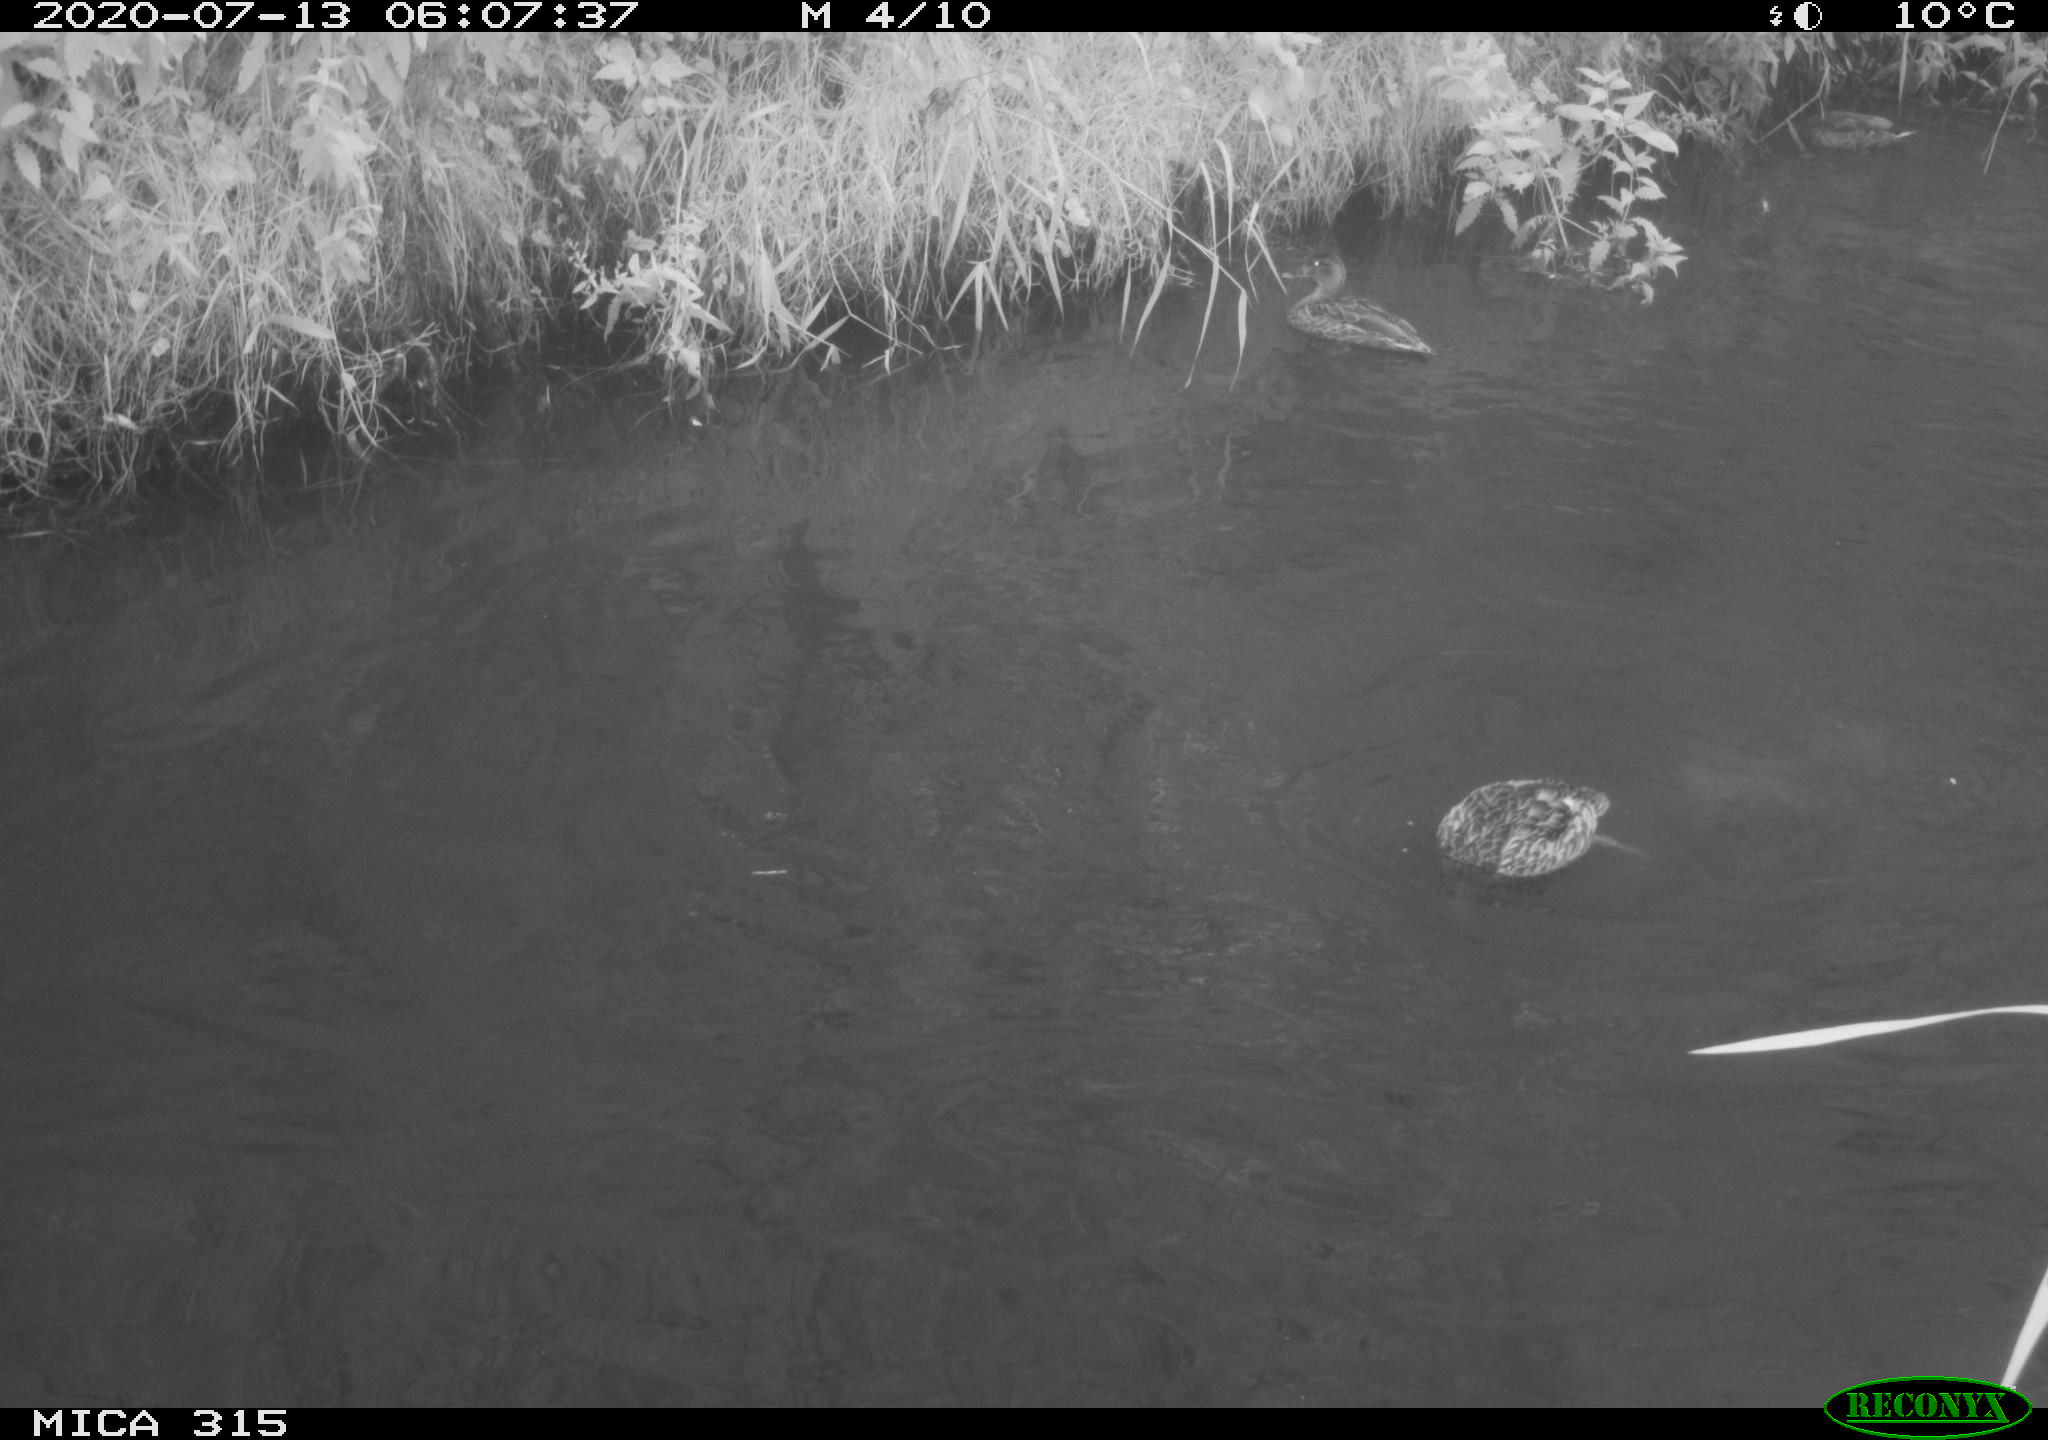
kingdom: Animalia
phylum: Chordata
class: Aves
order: Anseriformes
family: Anatidae
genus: Anas
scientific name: Anas platyrhynchos
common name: Mallard
